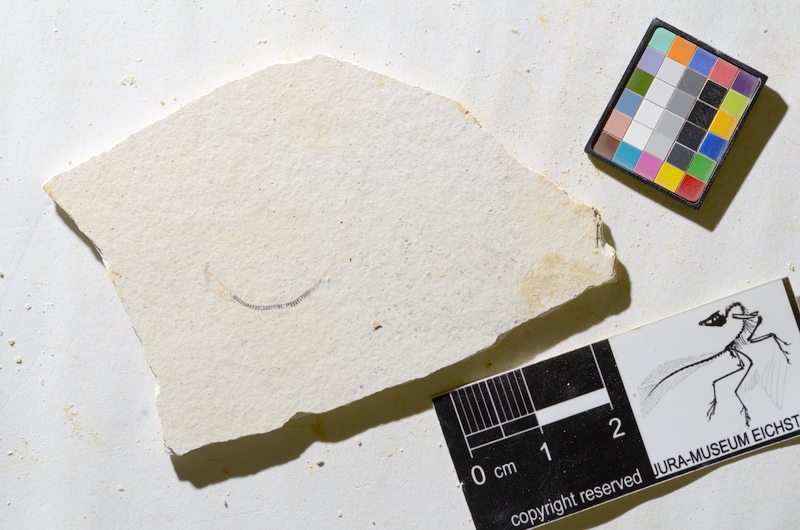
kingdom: Animalia
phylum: Chordata
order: Salmoniformes
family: Orthogonikleithridae
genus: Orthogonikleithrus
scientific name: Orthogonikleithrus hoelli
